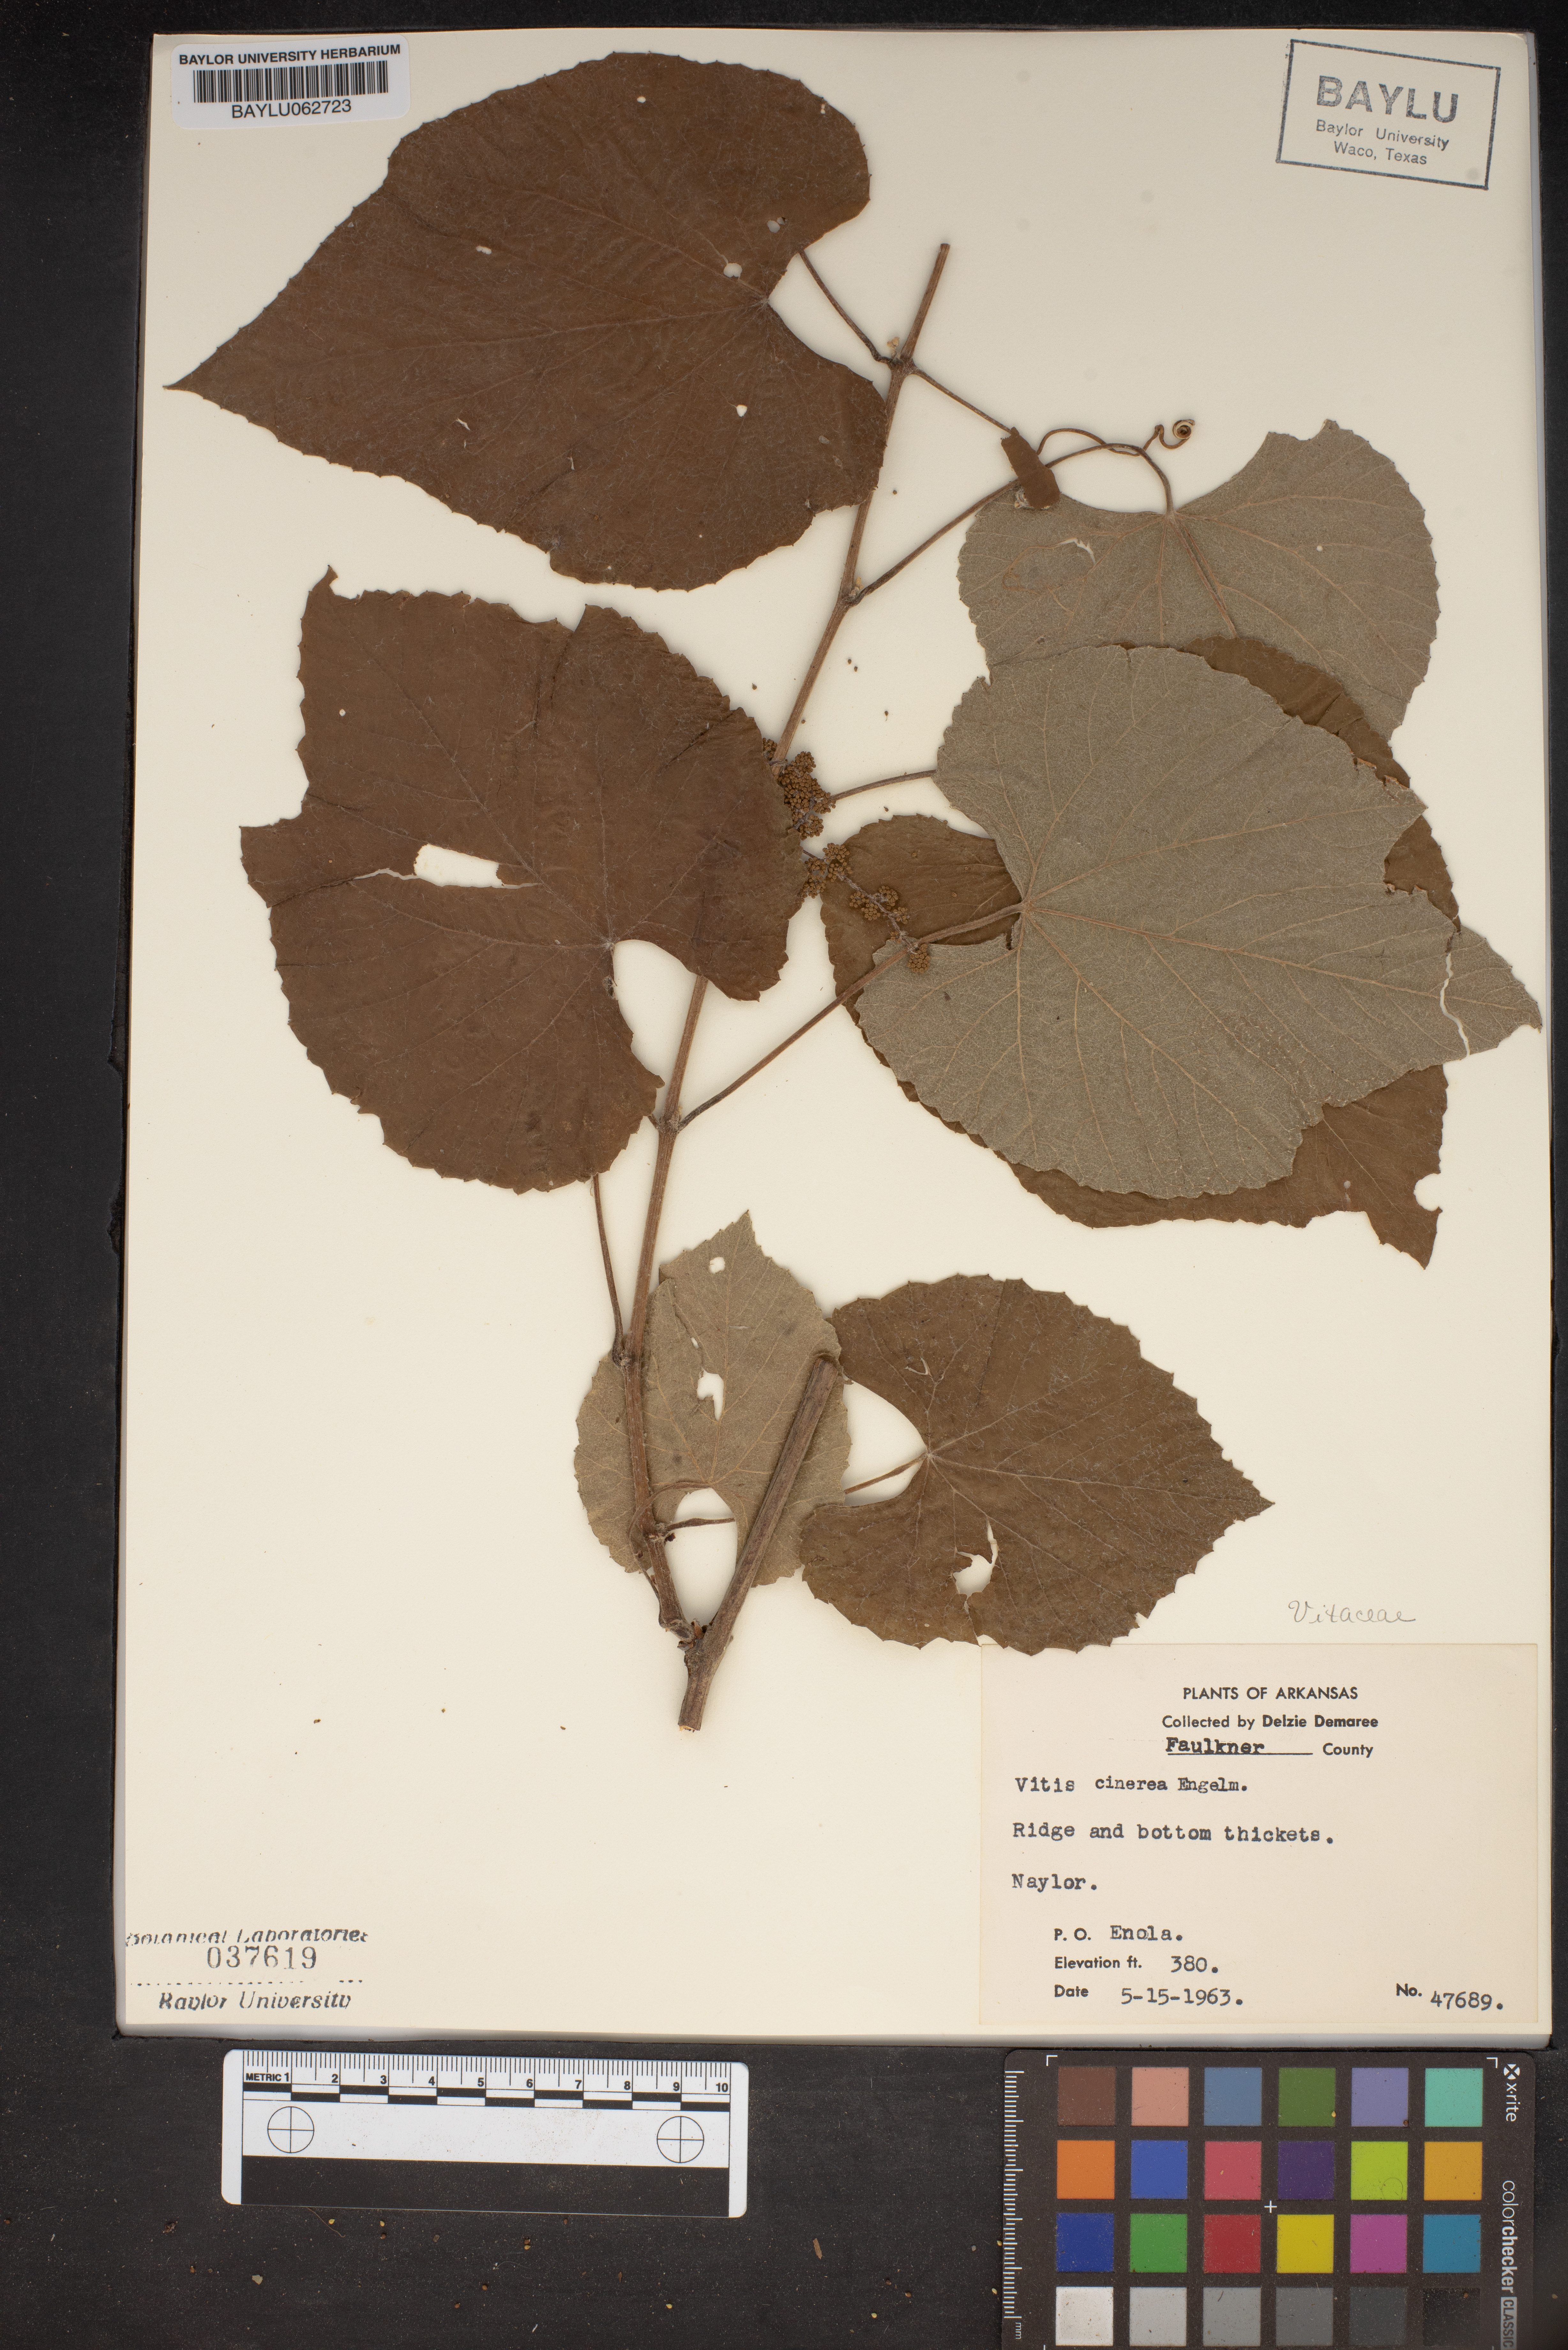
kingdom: Plantae
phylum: Tracheophyta
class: Magnoliopsida
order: Vitales
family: Vitaceae
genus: Vitis
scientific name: Vitis cinerea
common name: Ashy grape
